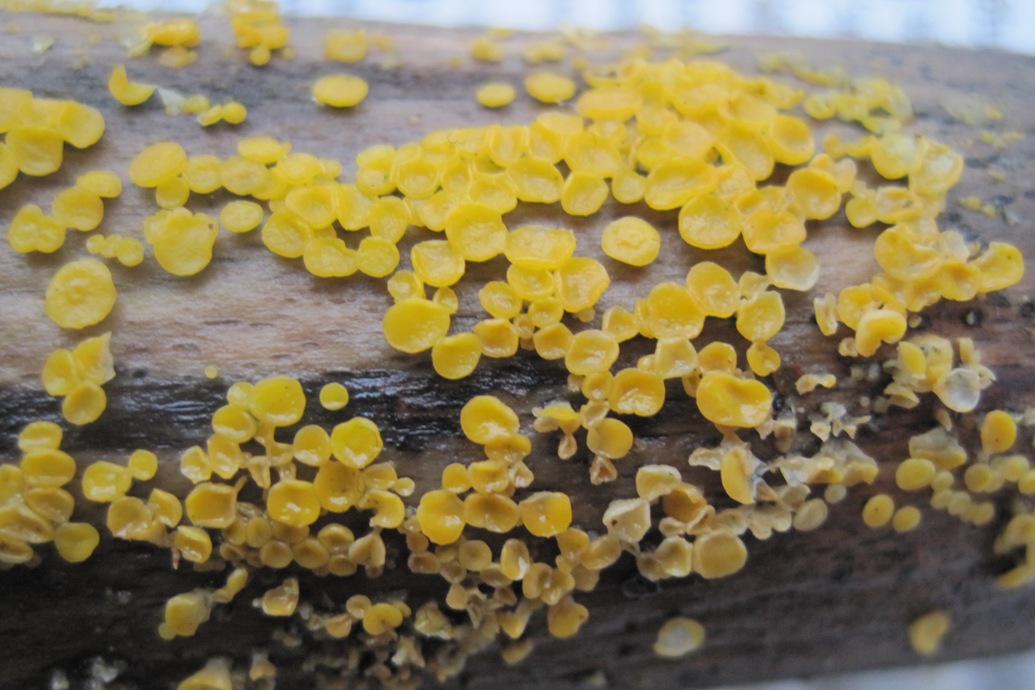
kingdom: Fungi
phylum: Ascomycota
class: Leotiomycetes
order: Helotiales
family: Pezizellaceae
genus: Calycina
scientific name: Calycina citrina
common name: almindelig gulskive
